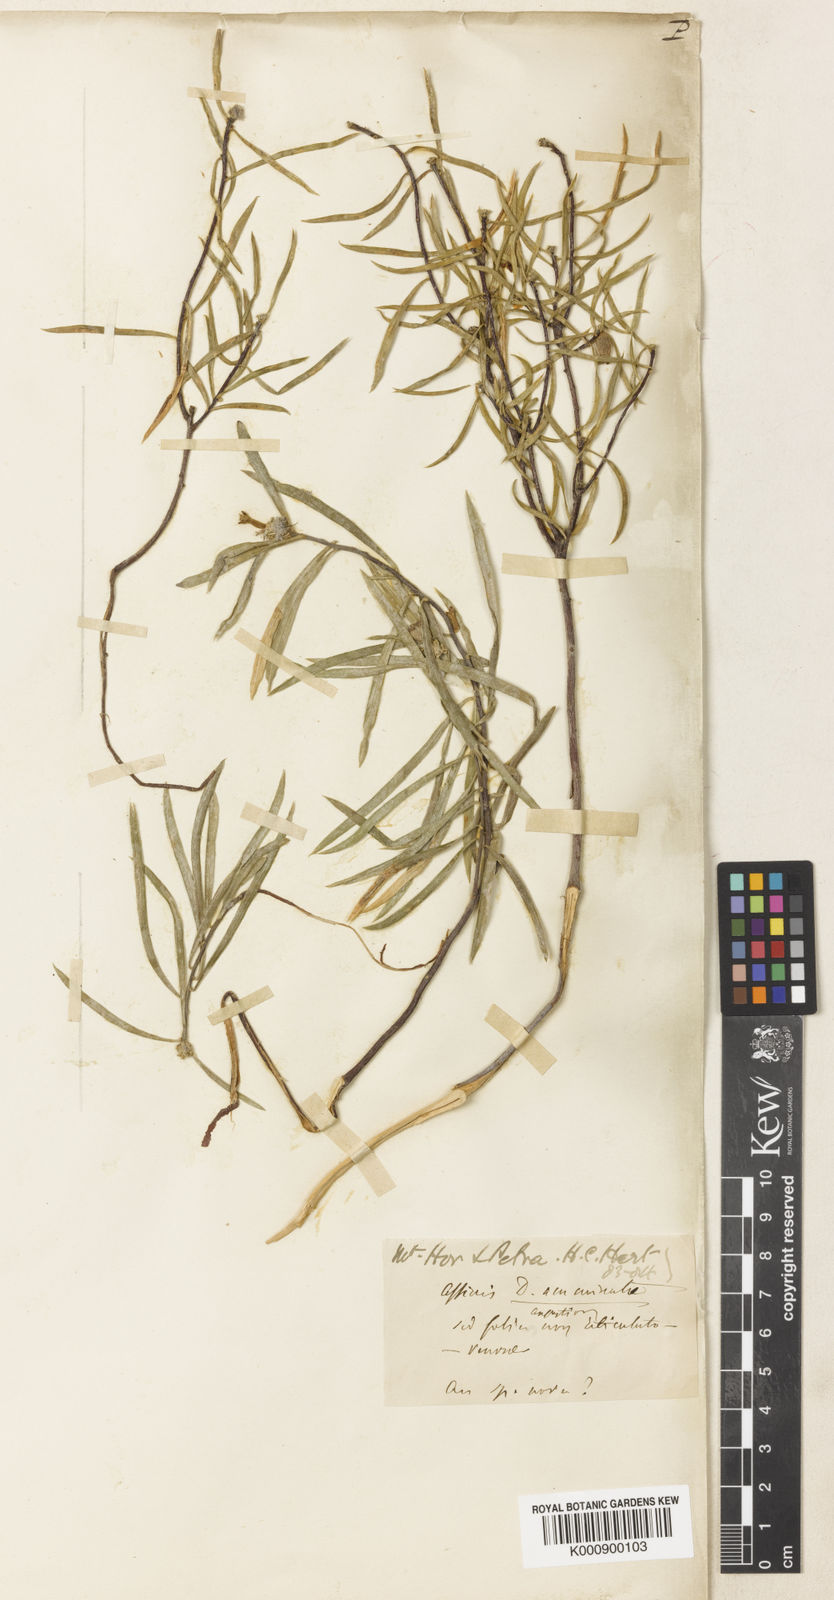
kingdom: Plantae
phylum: Tracheophyta
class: Magnoliopsida
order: Malvales
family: Thymelaeaceae
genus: Daphne
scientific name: Daphne mucronata
